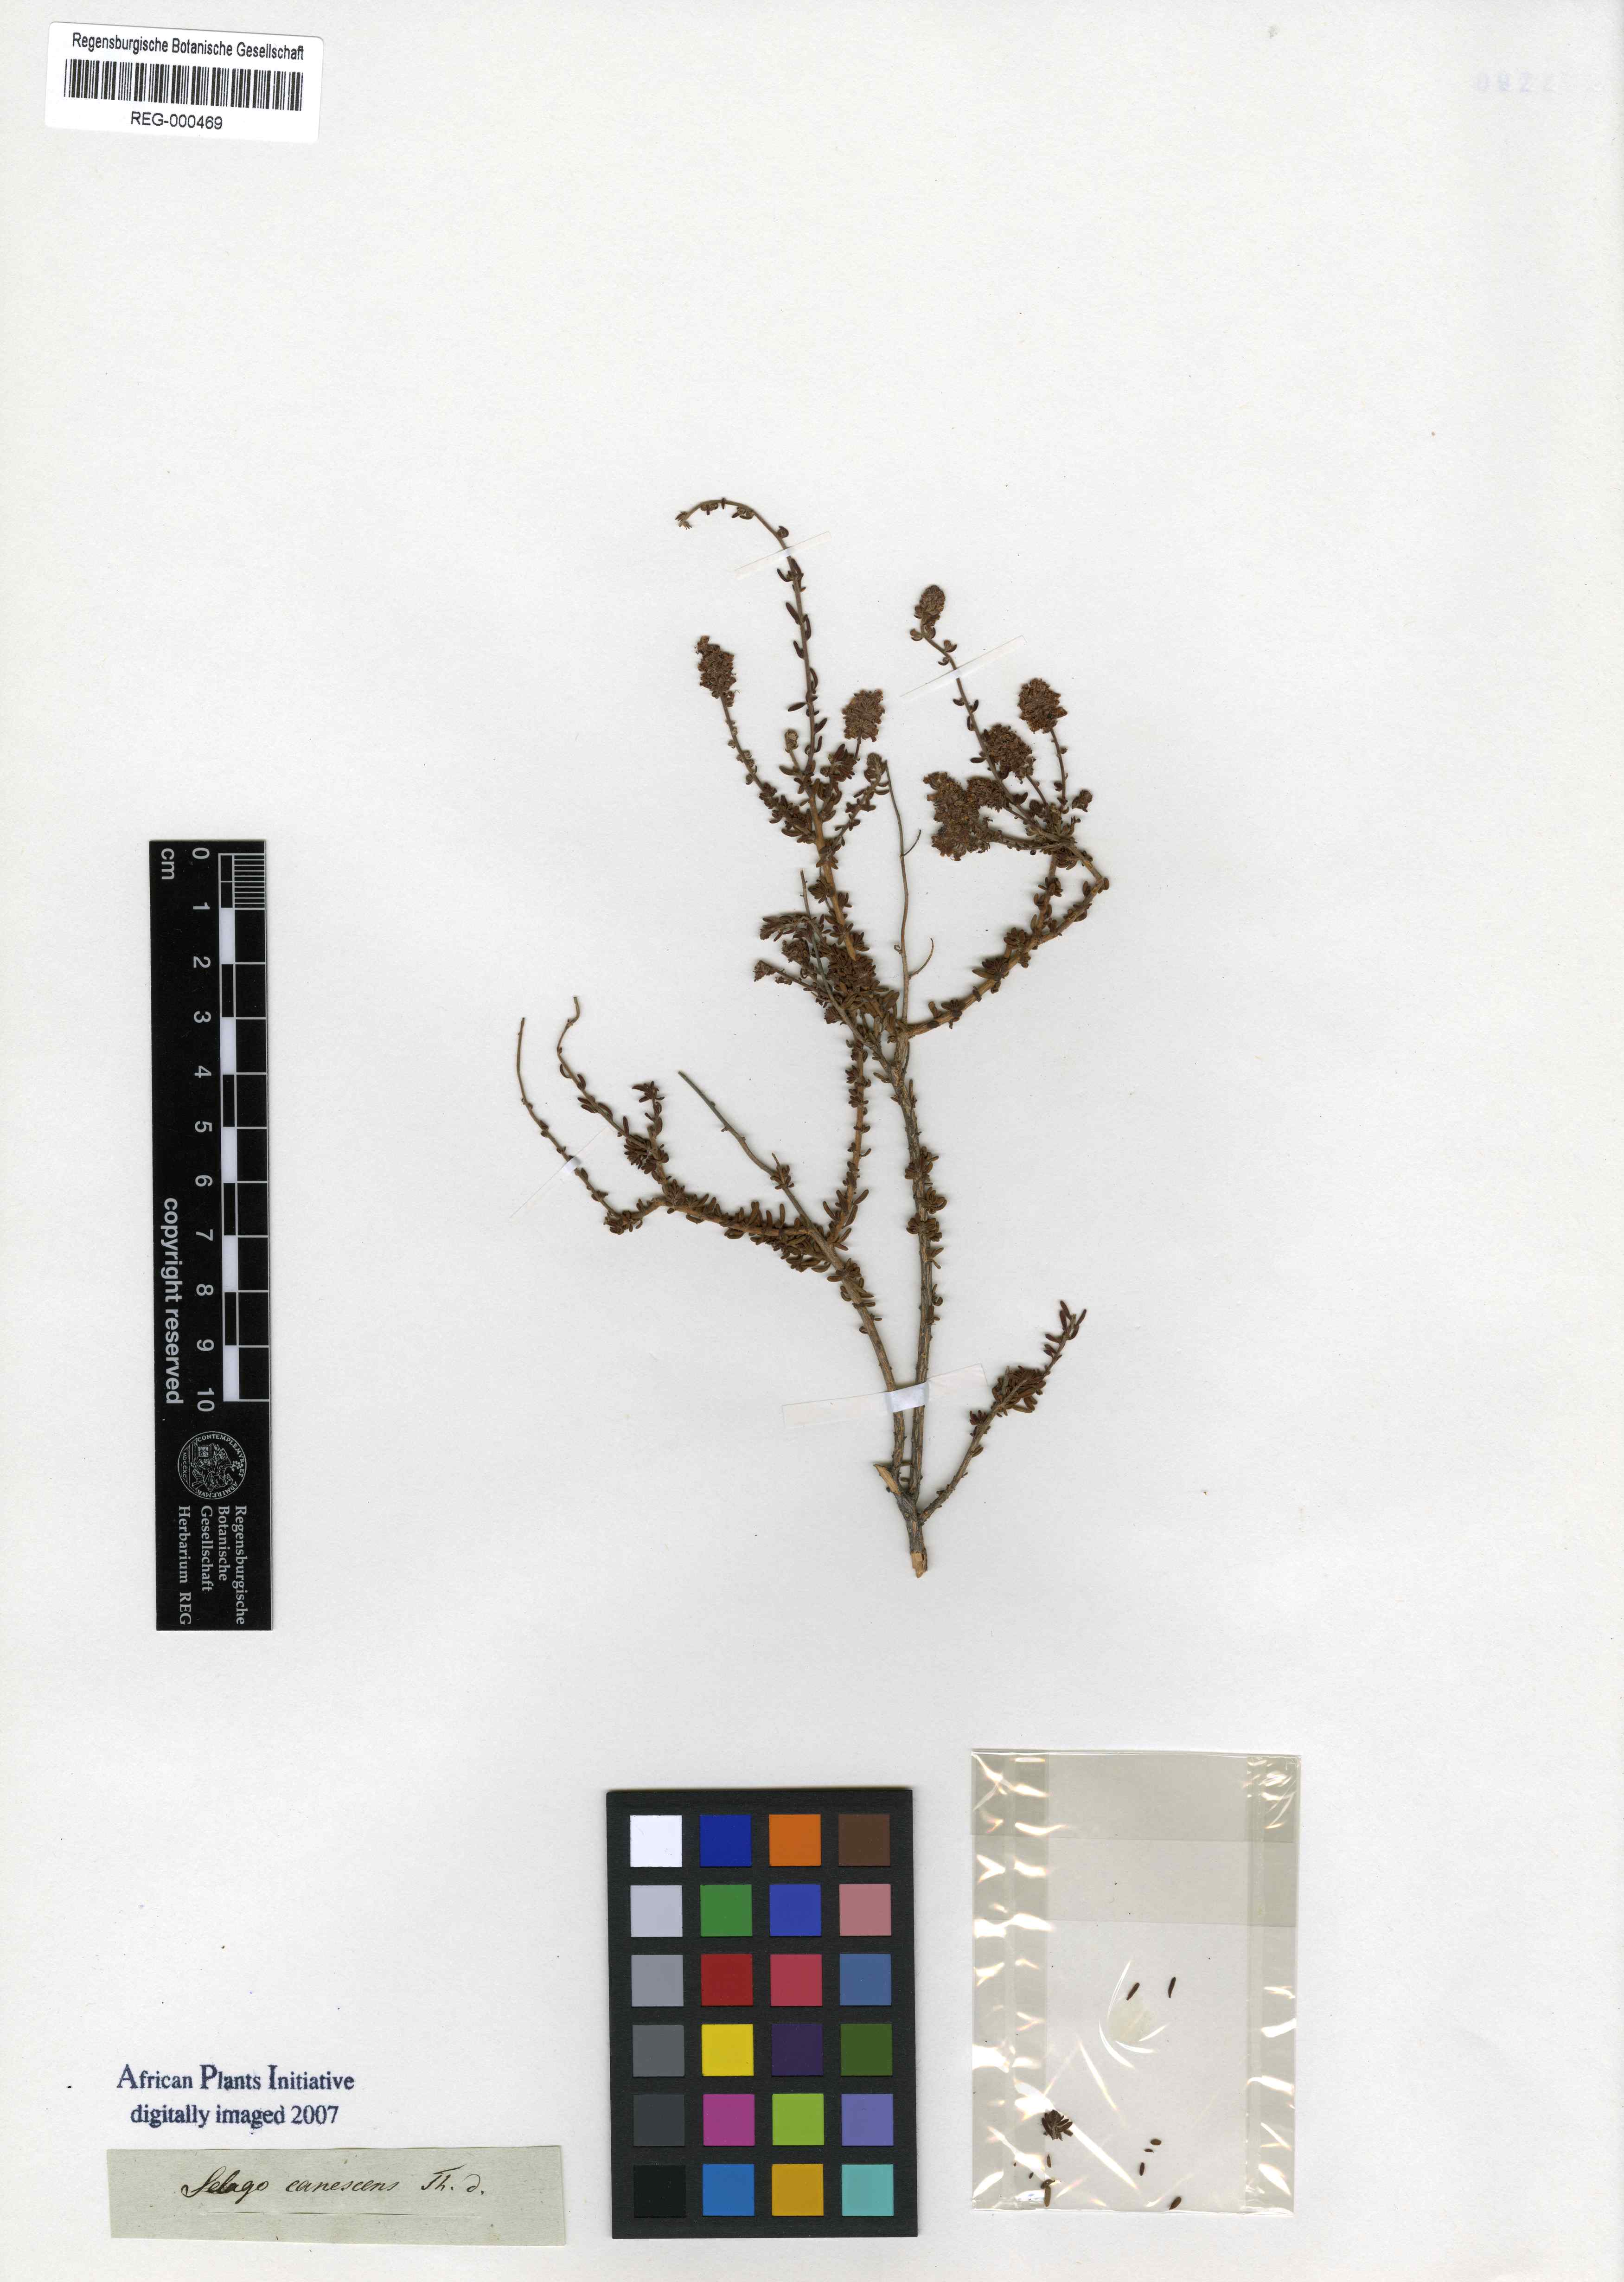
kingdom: Plantae
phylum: Tracheophyta
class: Magnoliopsida
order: Lamiales
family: Scrophulariaceae
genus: Selago
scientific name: Selago canescens
